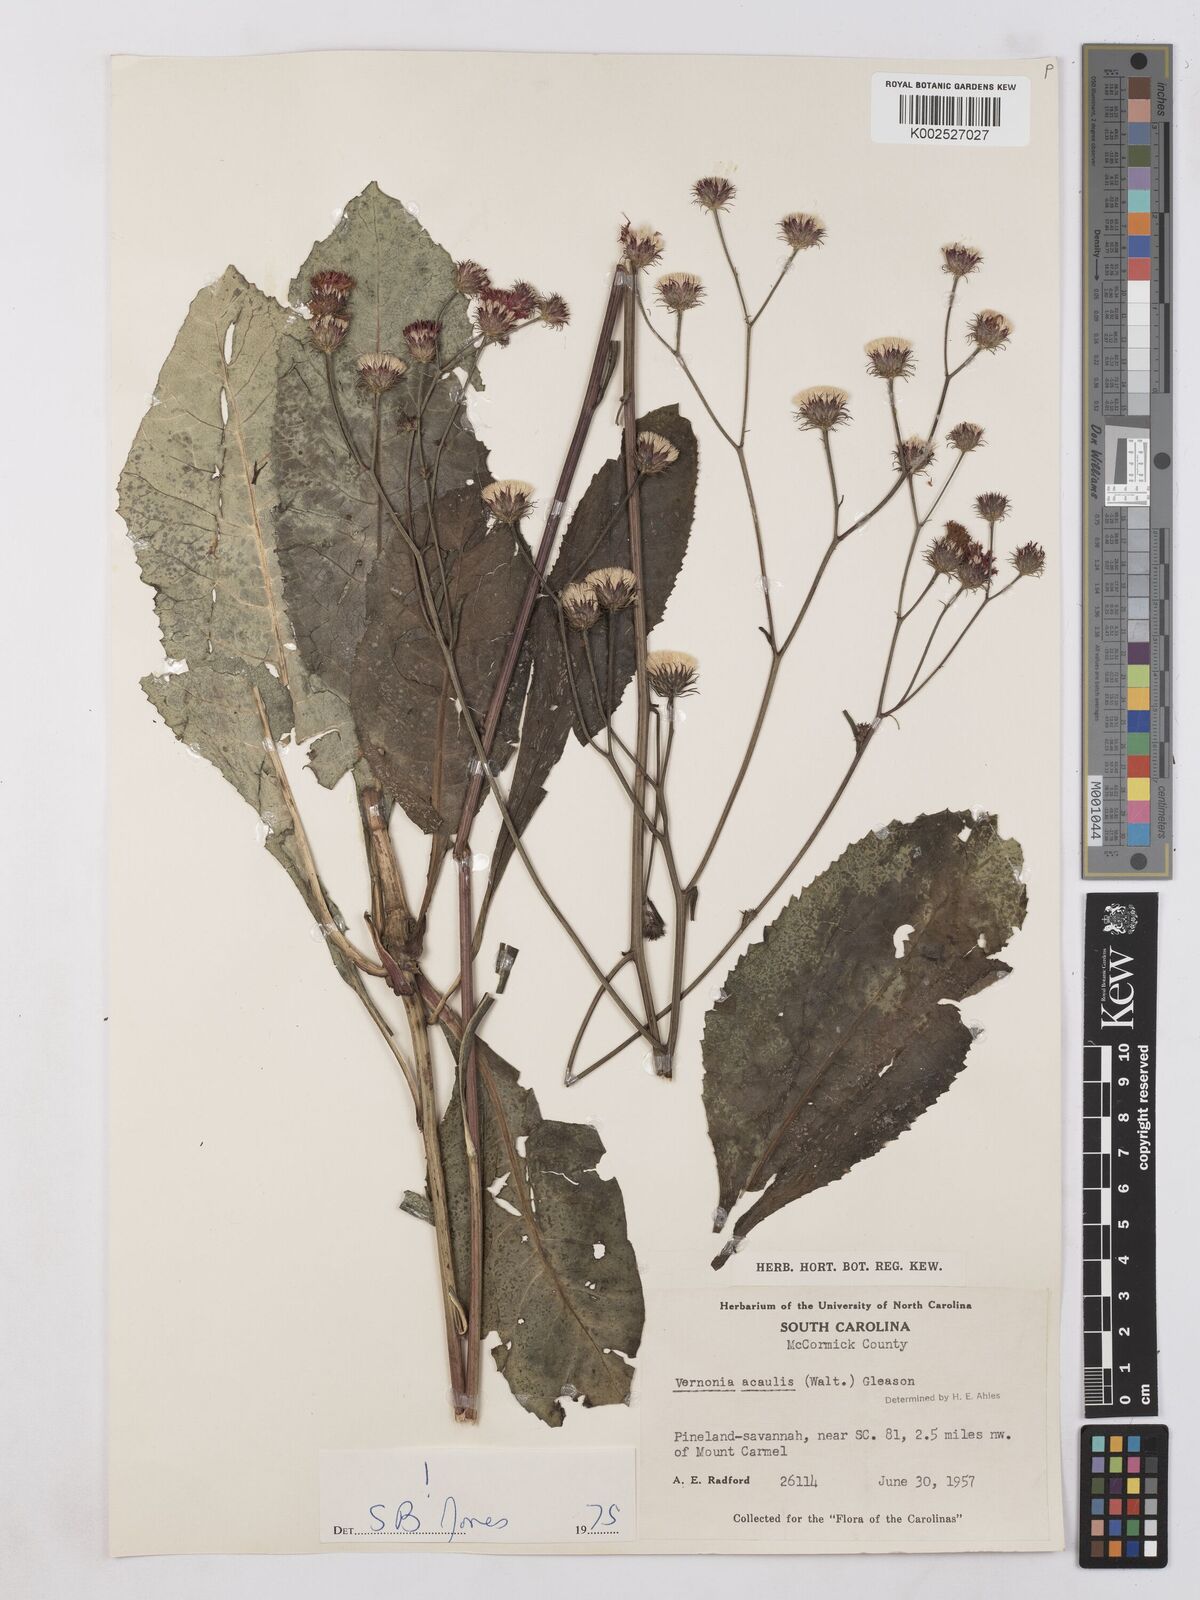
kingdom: Plantae
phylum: Tracheophyta
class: Magnoliopsida
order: Asterales
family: Asteraceae
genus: Vernonia
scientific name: Vernonia
